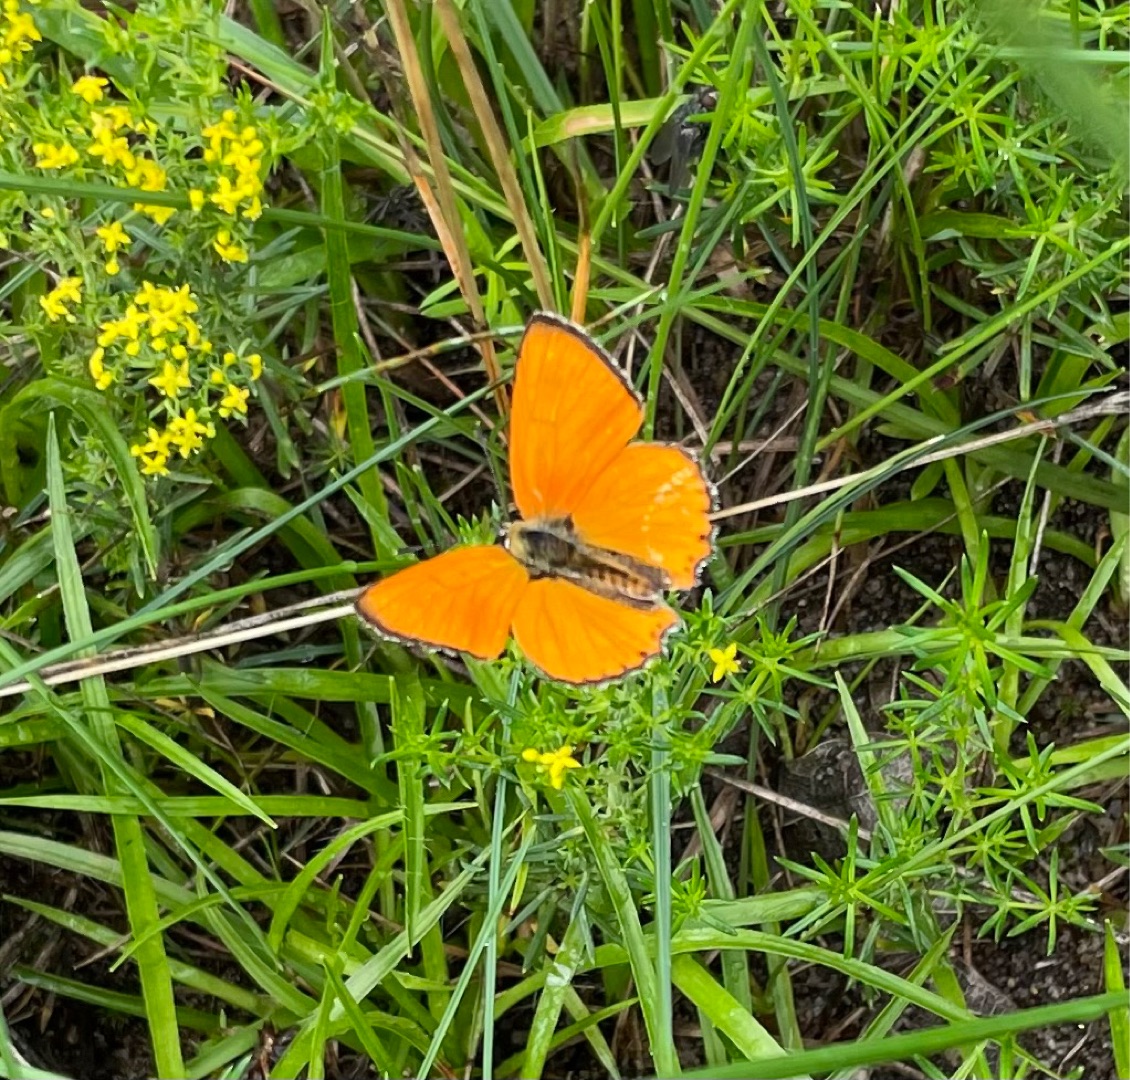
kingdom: Animalia
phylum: Arthropoda
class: Insecta
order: Lepidoptera
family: Lycaenidae
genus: Lycaena
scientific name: Lycaena virgaureae
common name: Dukatsommerfugl
